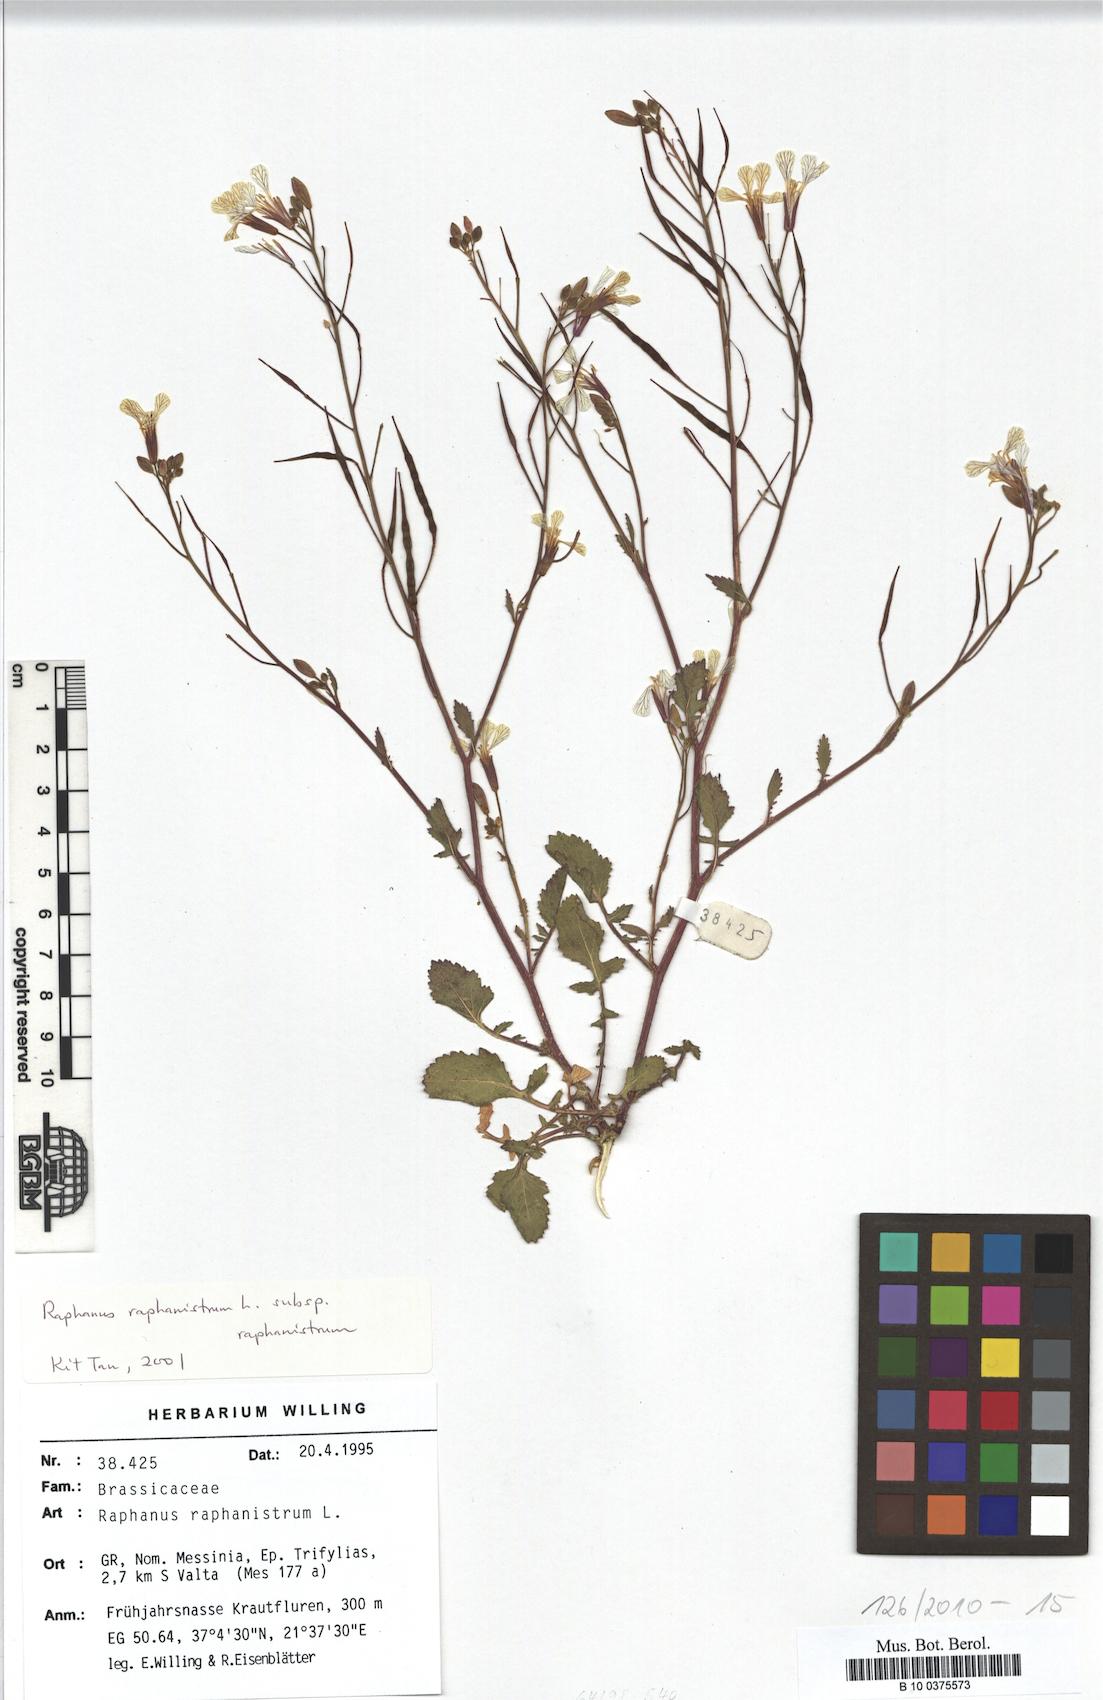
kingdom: Plantae
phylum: Tracheophyta
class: Magnoliopsida
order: Brassicales
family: Brassicaceae
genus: Raphanus
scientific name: Raphanus raphanistrum
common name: Wild radish
